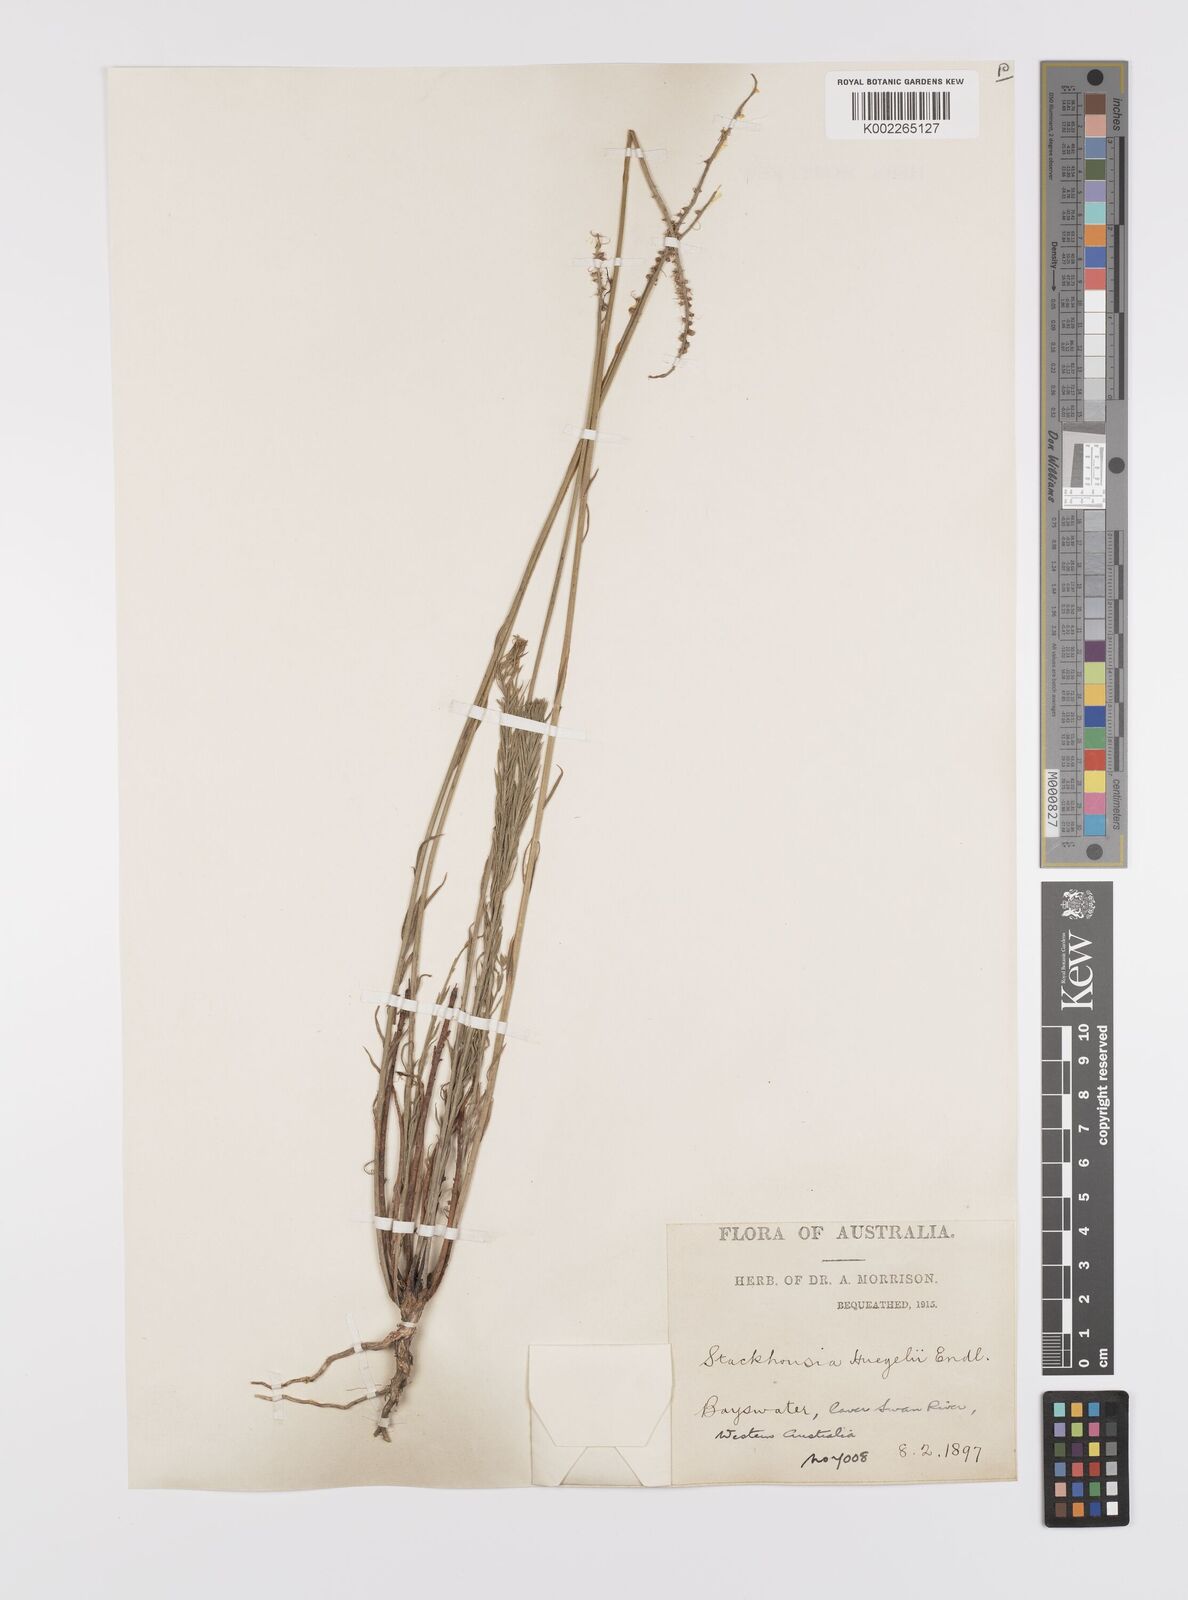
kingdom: Plantae
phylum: Tracheophyta
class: Magnoliopsida
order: Celastrales
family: Celastraceae
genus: Stackhousia
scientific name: Stackhousia monogyna
